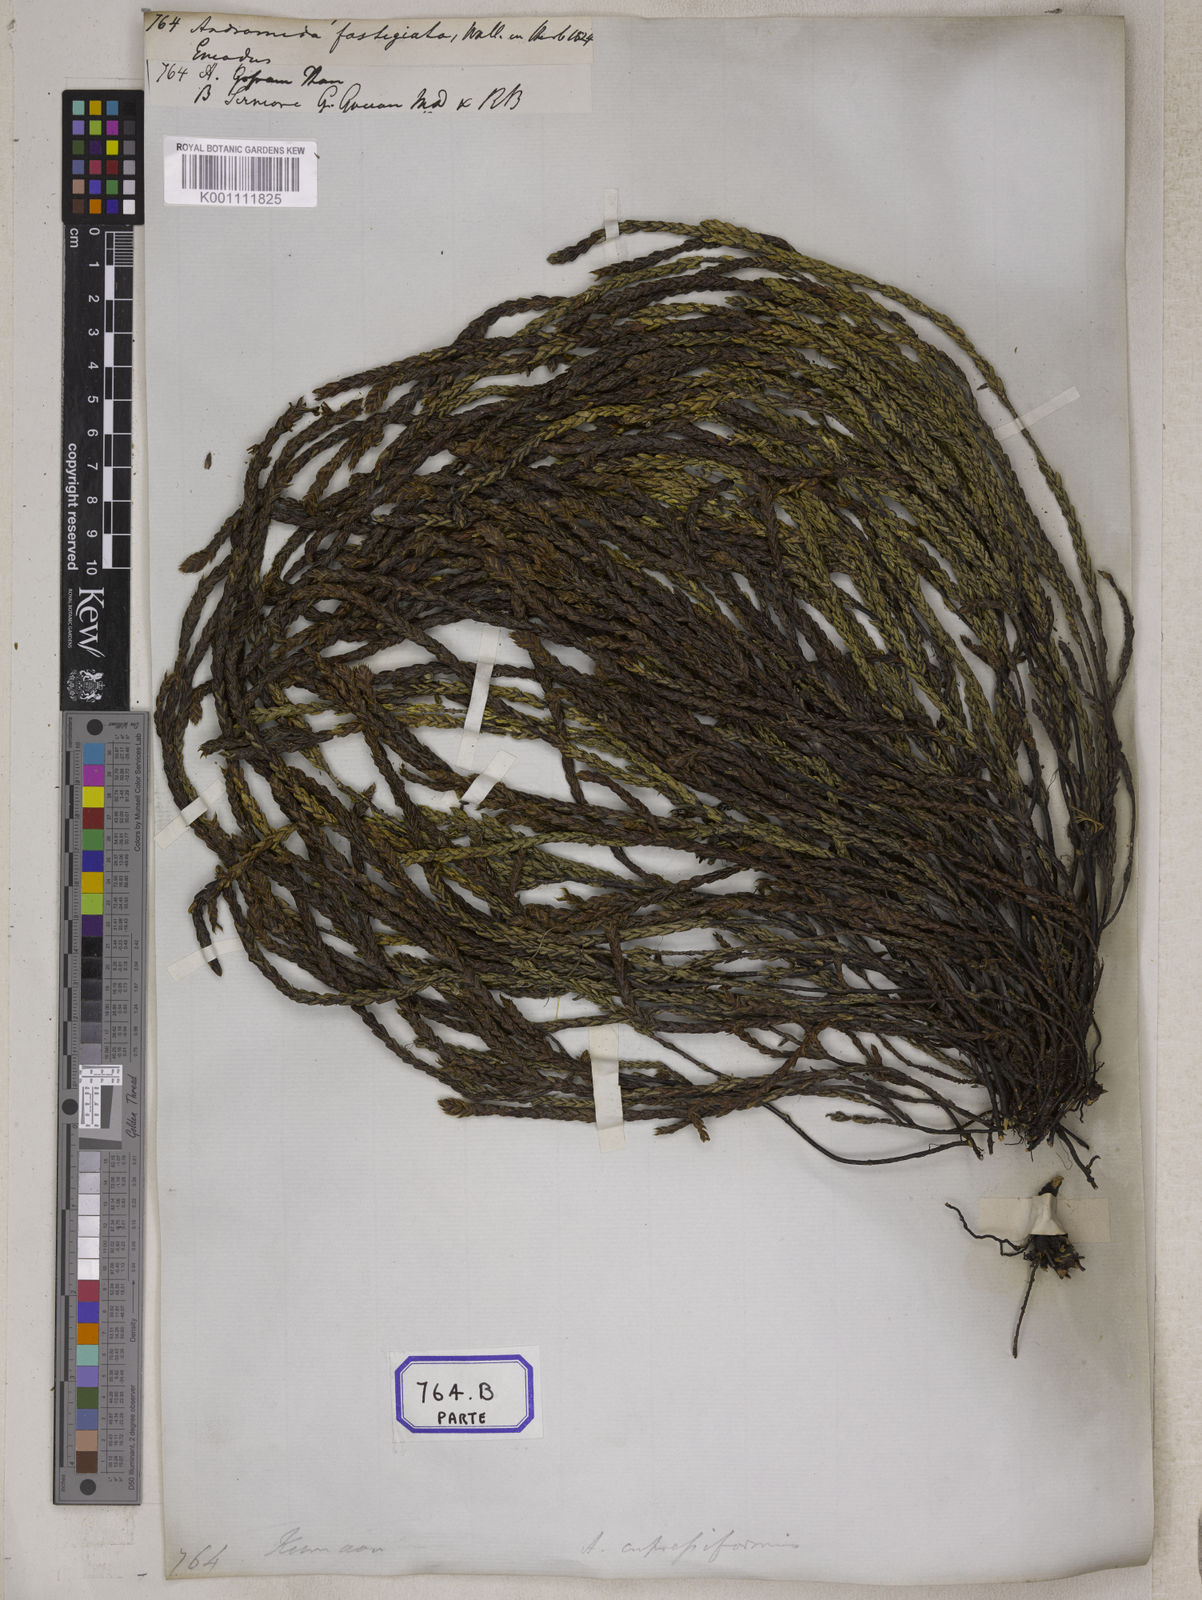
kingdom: Plantae
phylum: Tracheophyta
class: Magnoliopsida
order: Ericales
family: Ericaceae
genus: Cassiope
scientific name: Cassiope fastigiata
